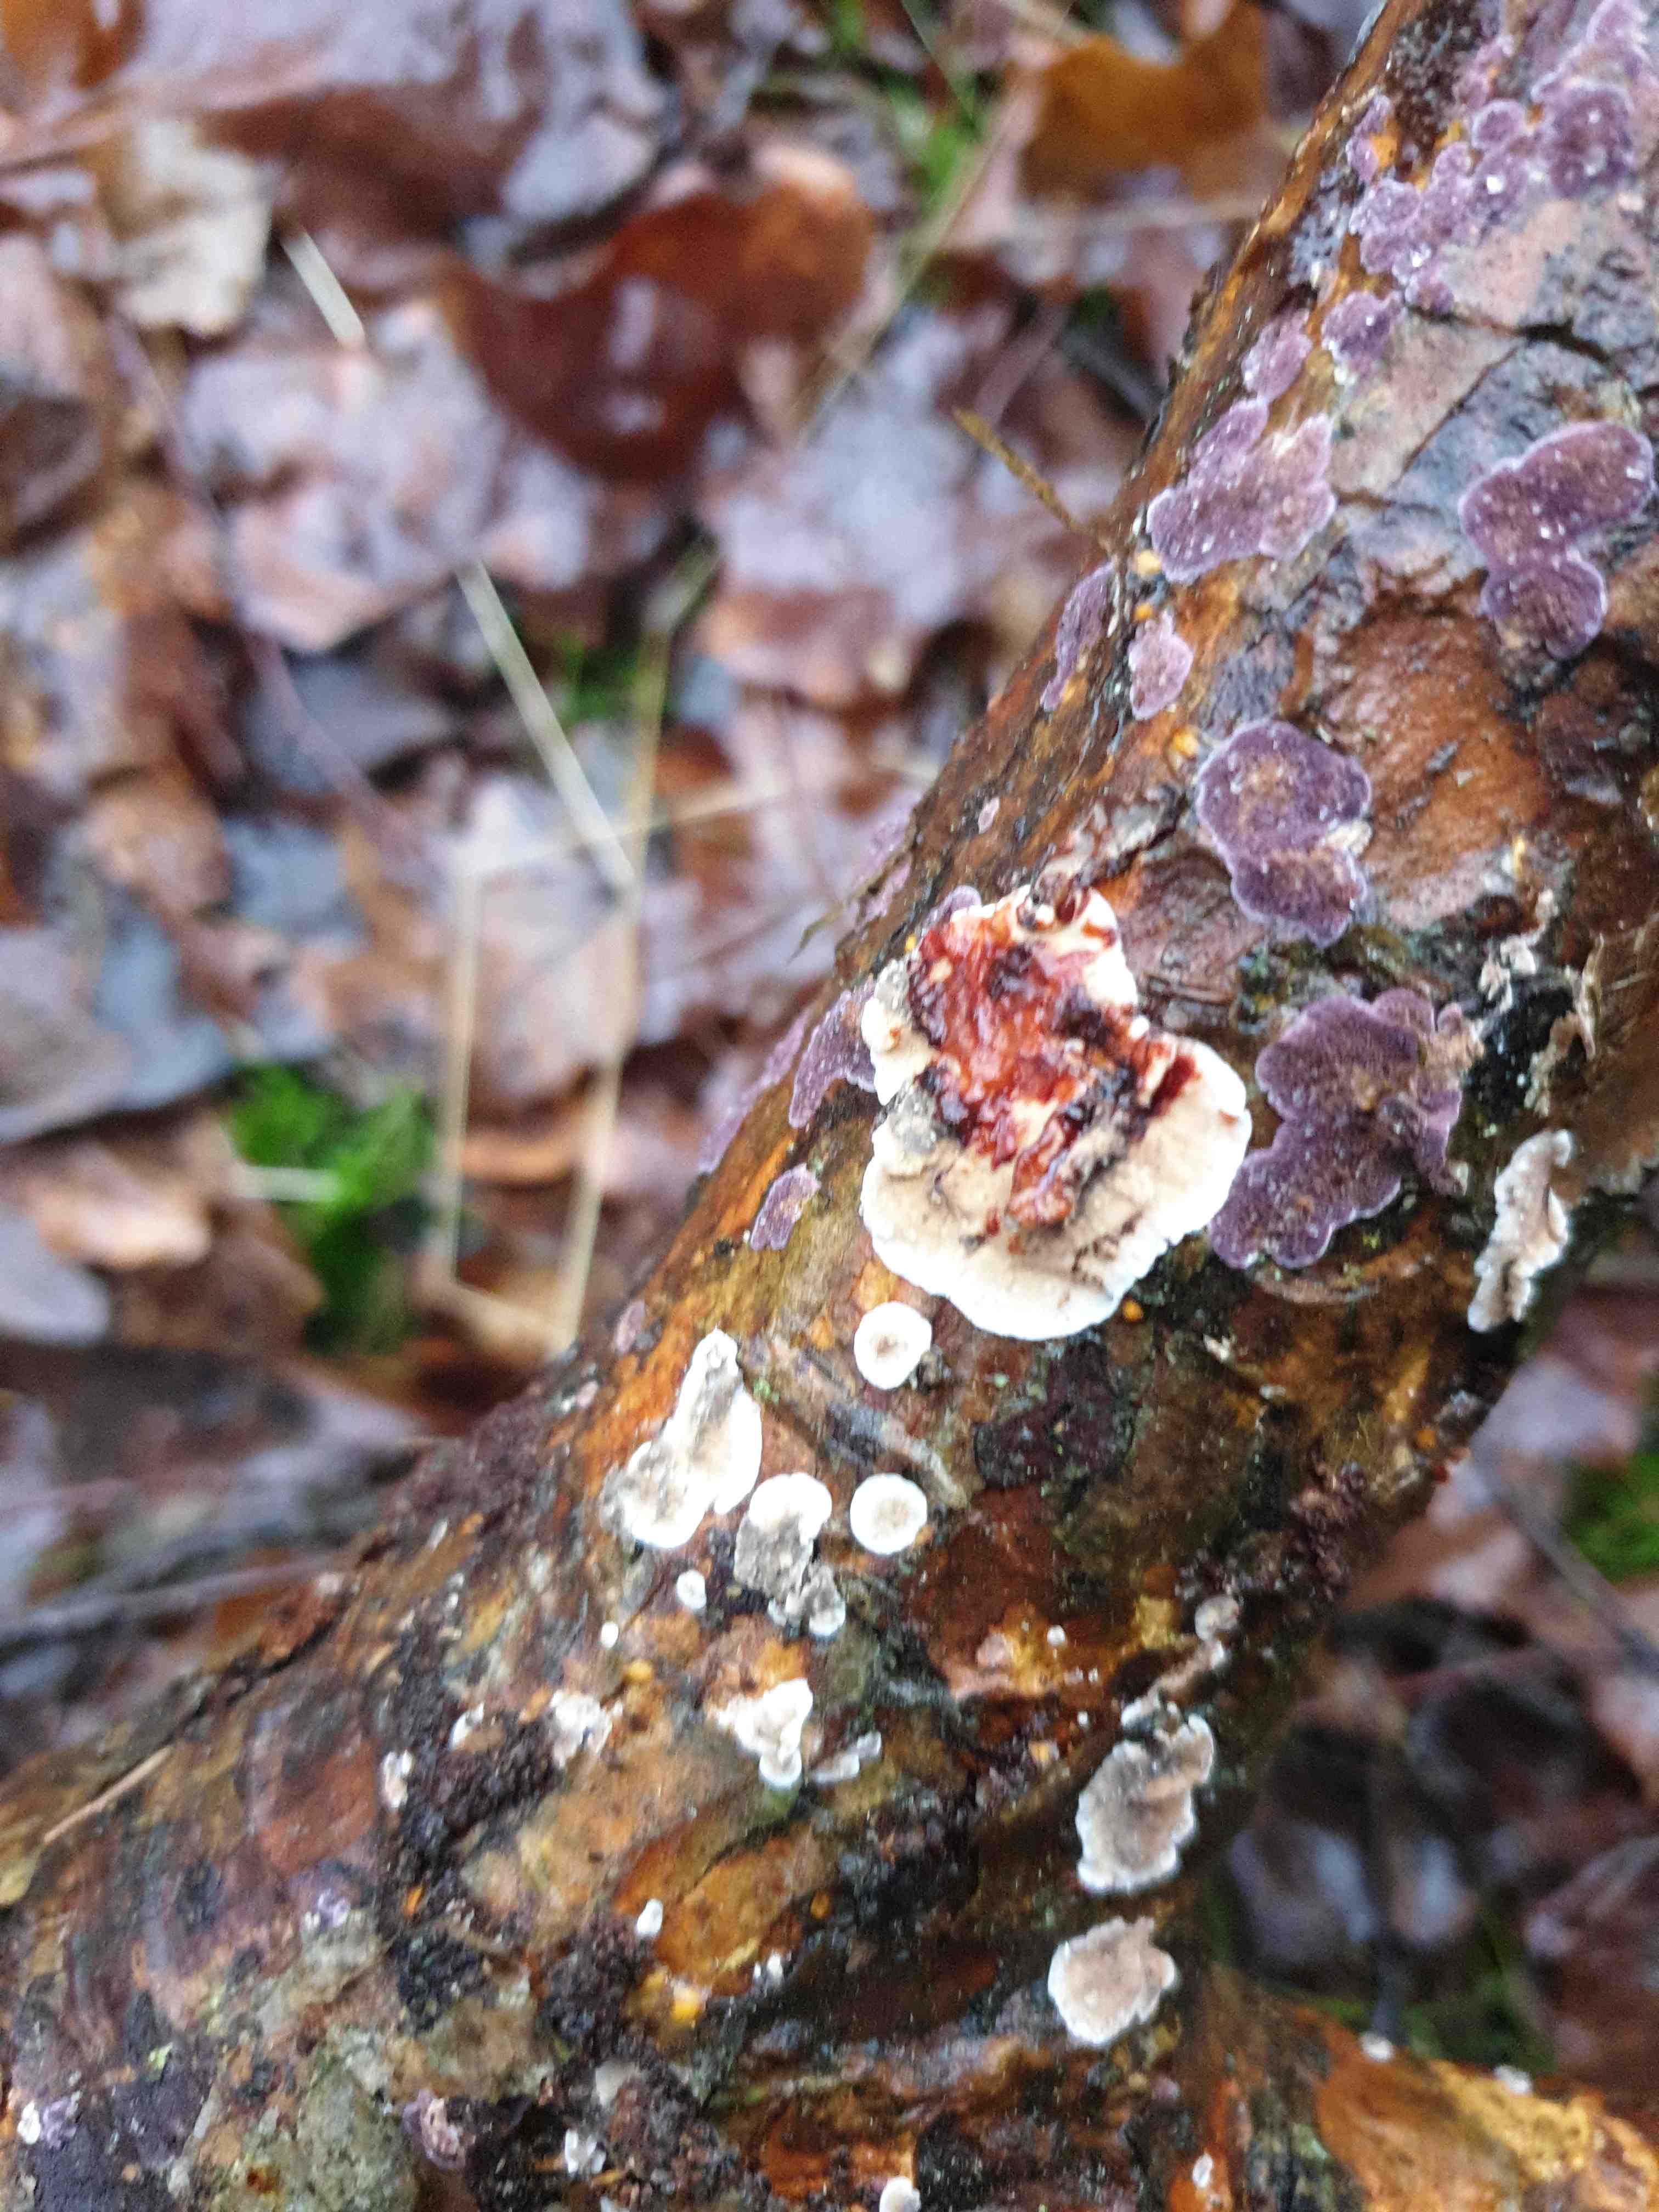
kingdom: Fungi
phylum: Basidiomycota
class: Agaricomycetes
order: Russulales
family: Stereaceae
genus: Stereum
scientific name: Stereum sanguinolentum
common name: blødende lædersvamp
